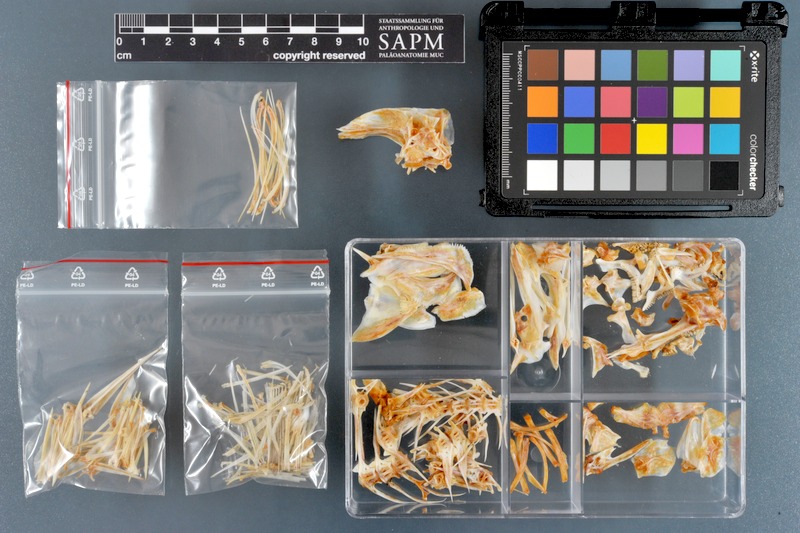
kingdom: Animalia
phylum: Chordata
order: Perciformes
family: Haemulidae
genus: Diagramma
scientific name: Diagramma pictum
